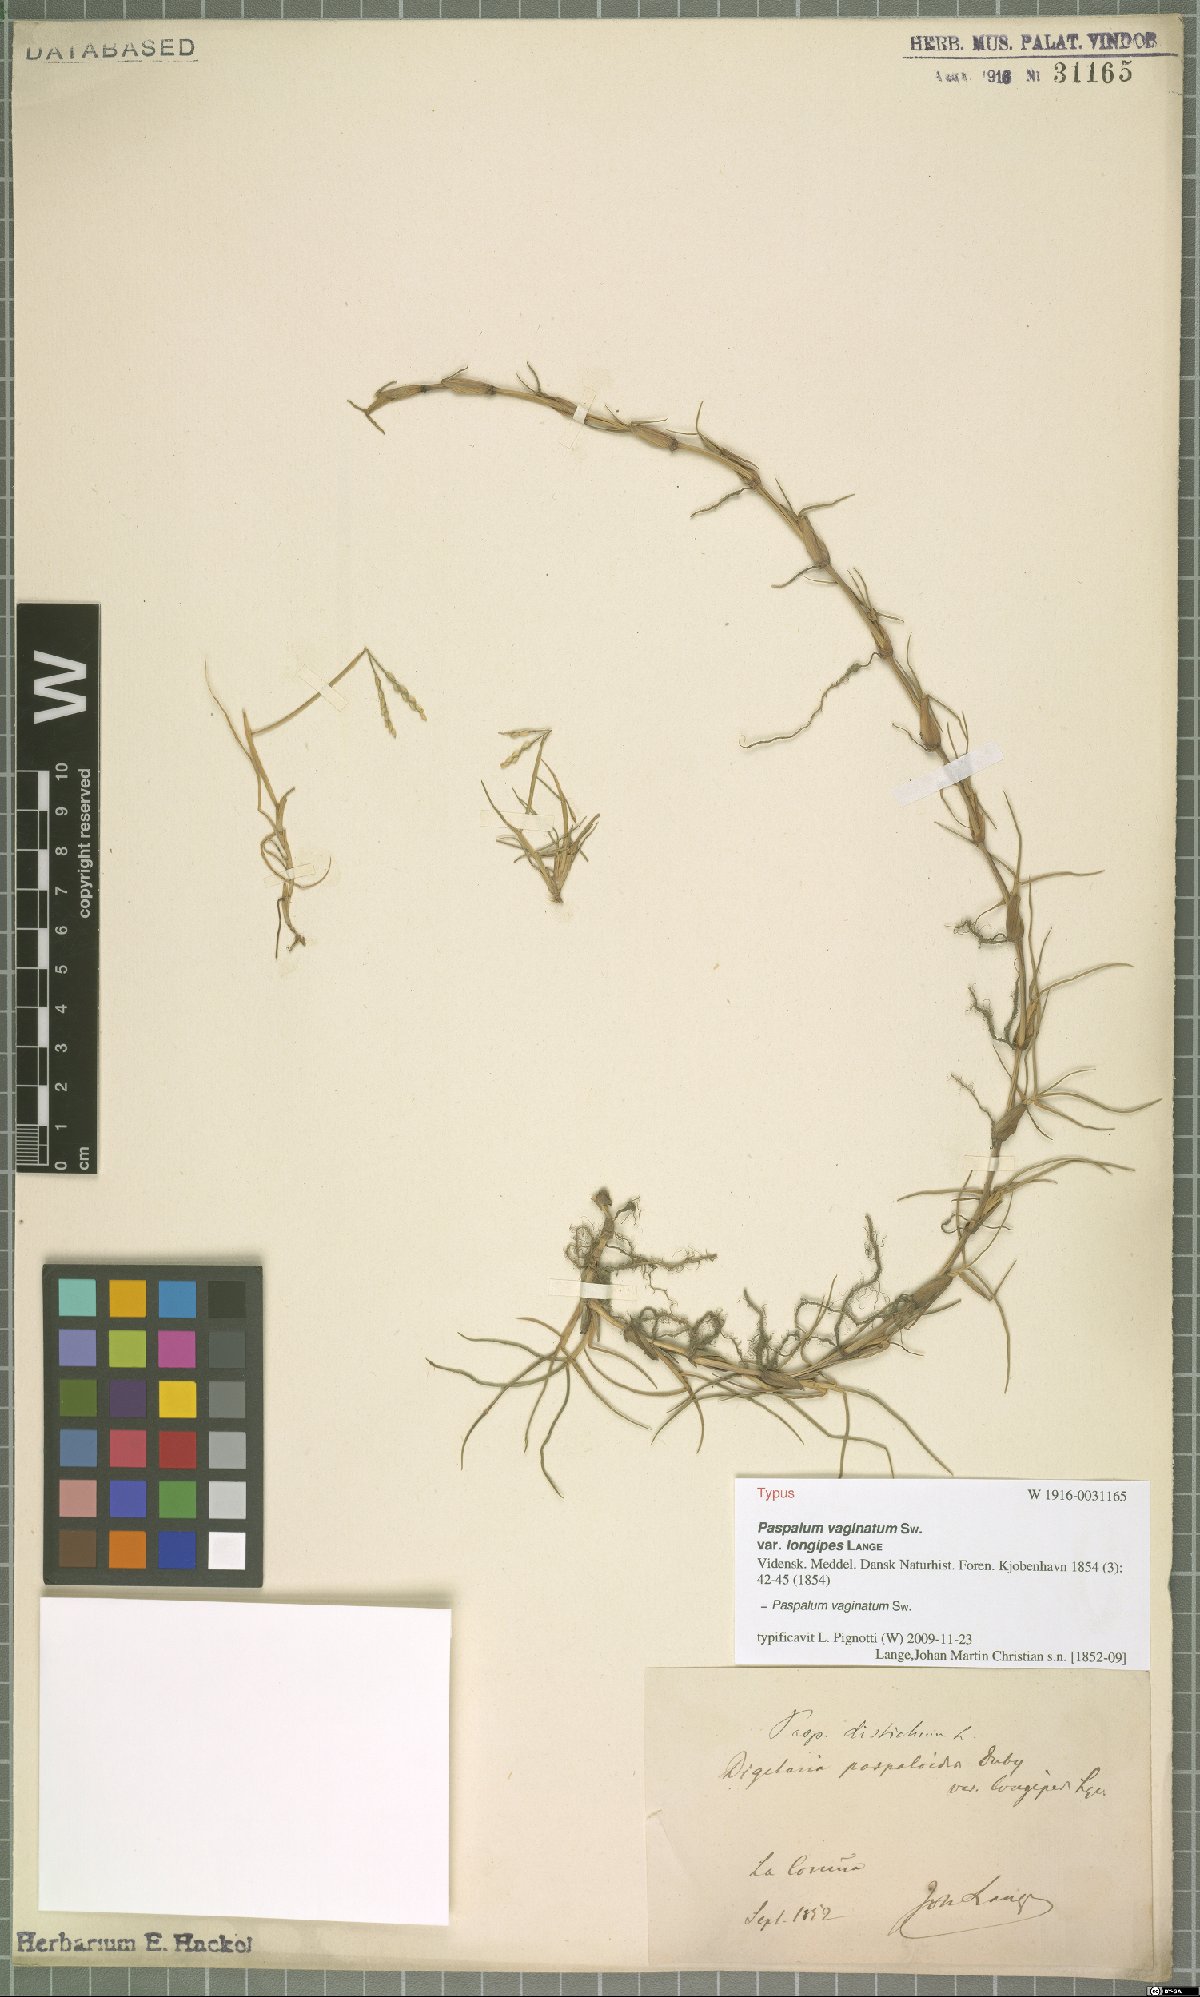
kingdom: Plantae
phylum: Tracheophyta
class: Liliopsida
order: Poales
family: Poaceae
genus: Paspalum
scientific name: Paspalum vaginatum
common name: Seashore paspalum
